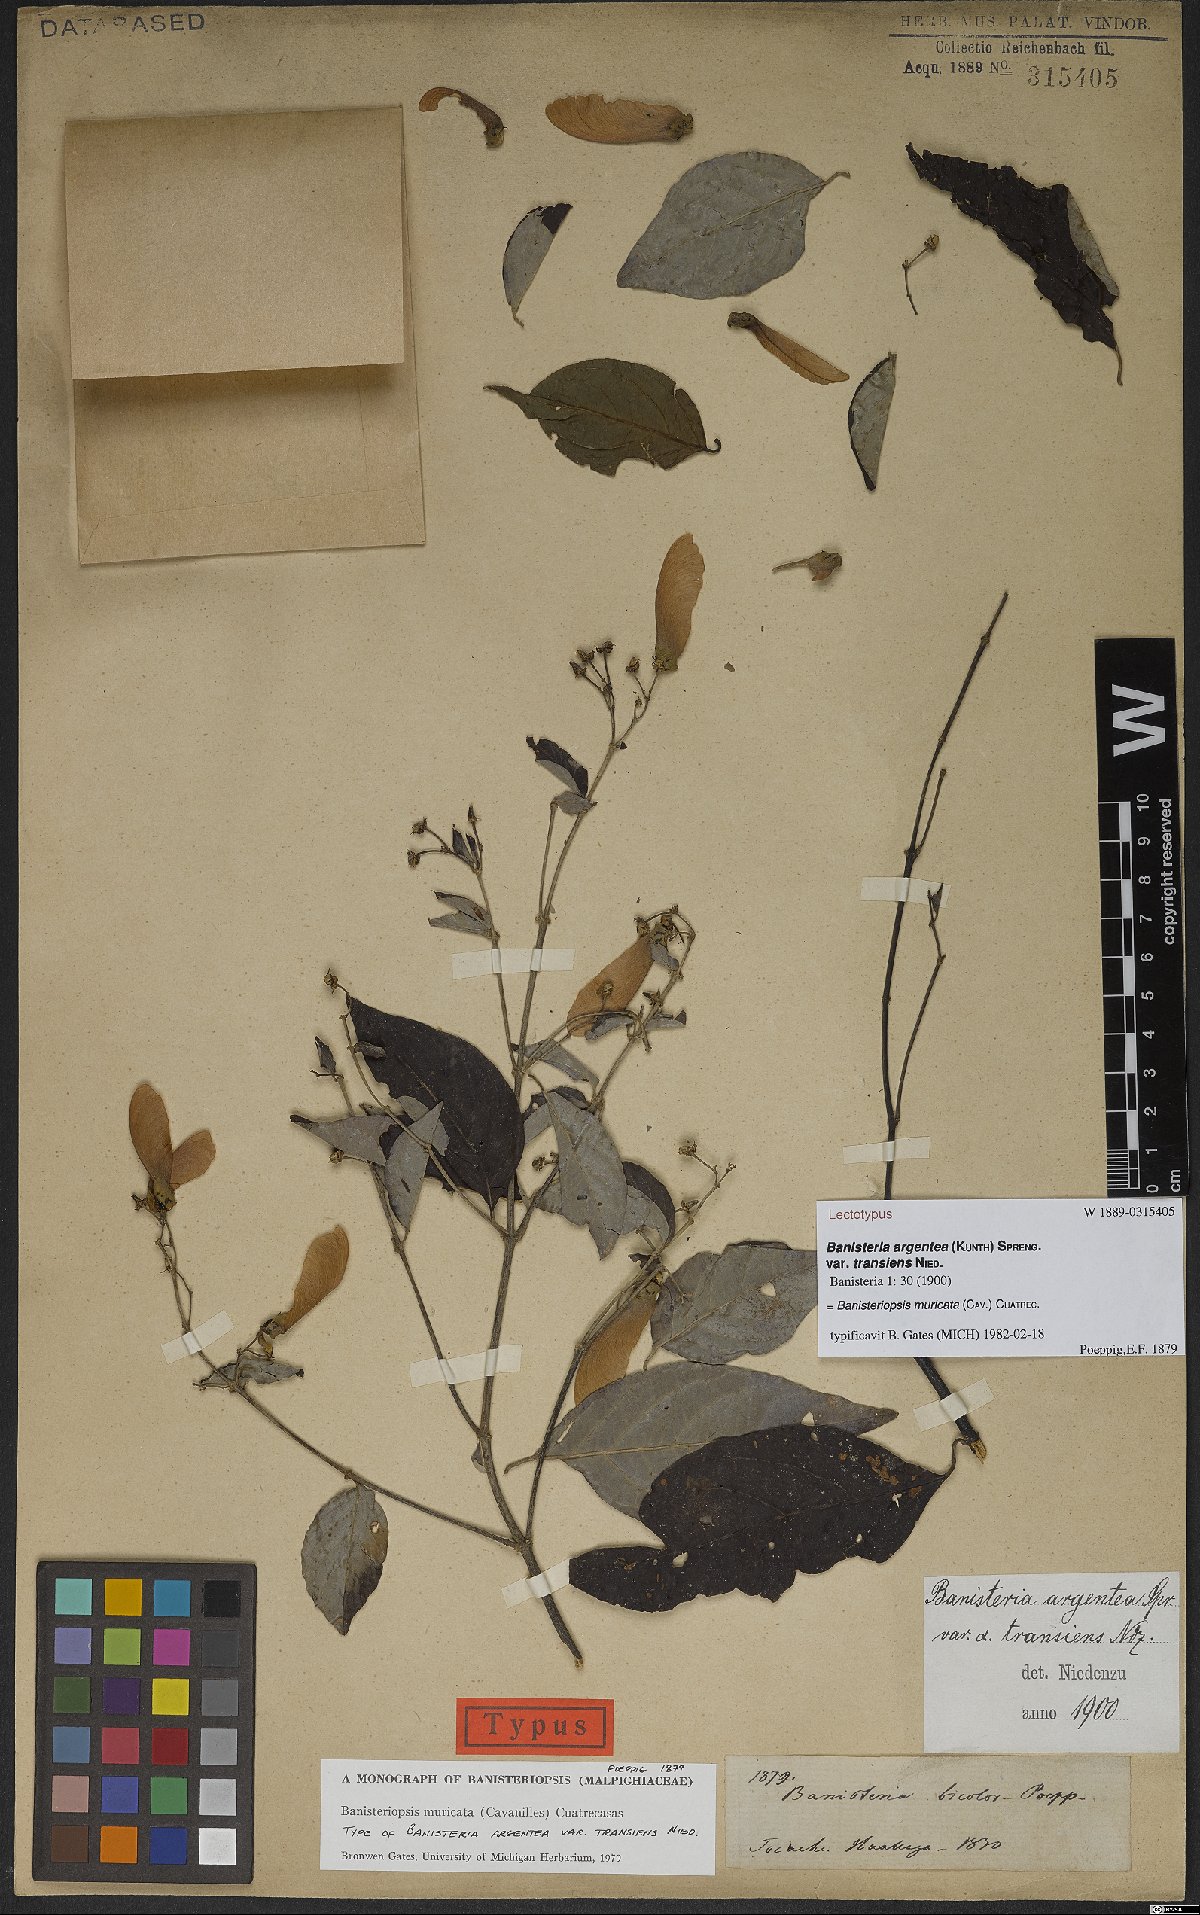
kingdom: Plantae
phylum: Tracheophyta
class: Magnoliopsida
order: Malpighiales
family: Malpighiaceae
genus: Banisteriopsis
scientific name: Banisteriopsis muricata
